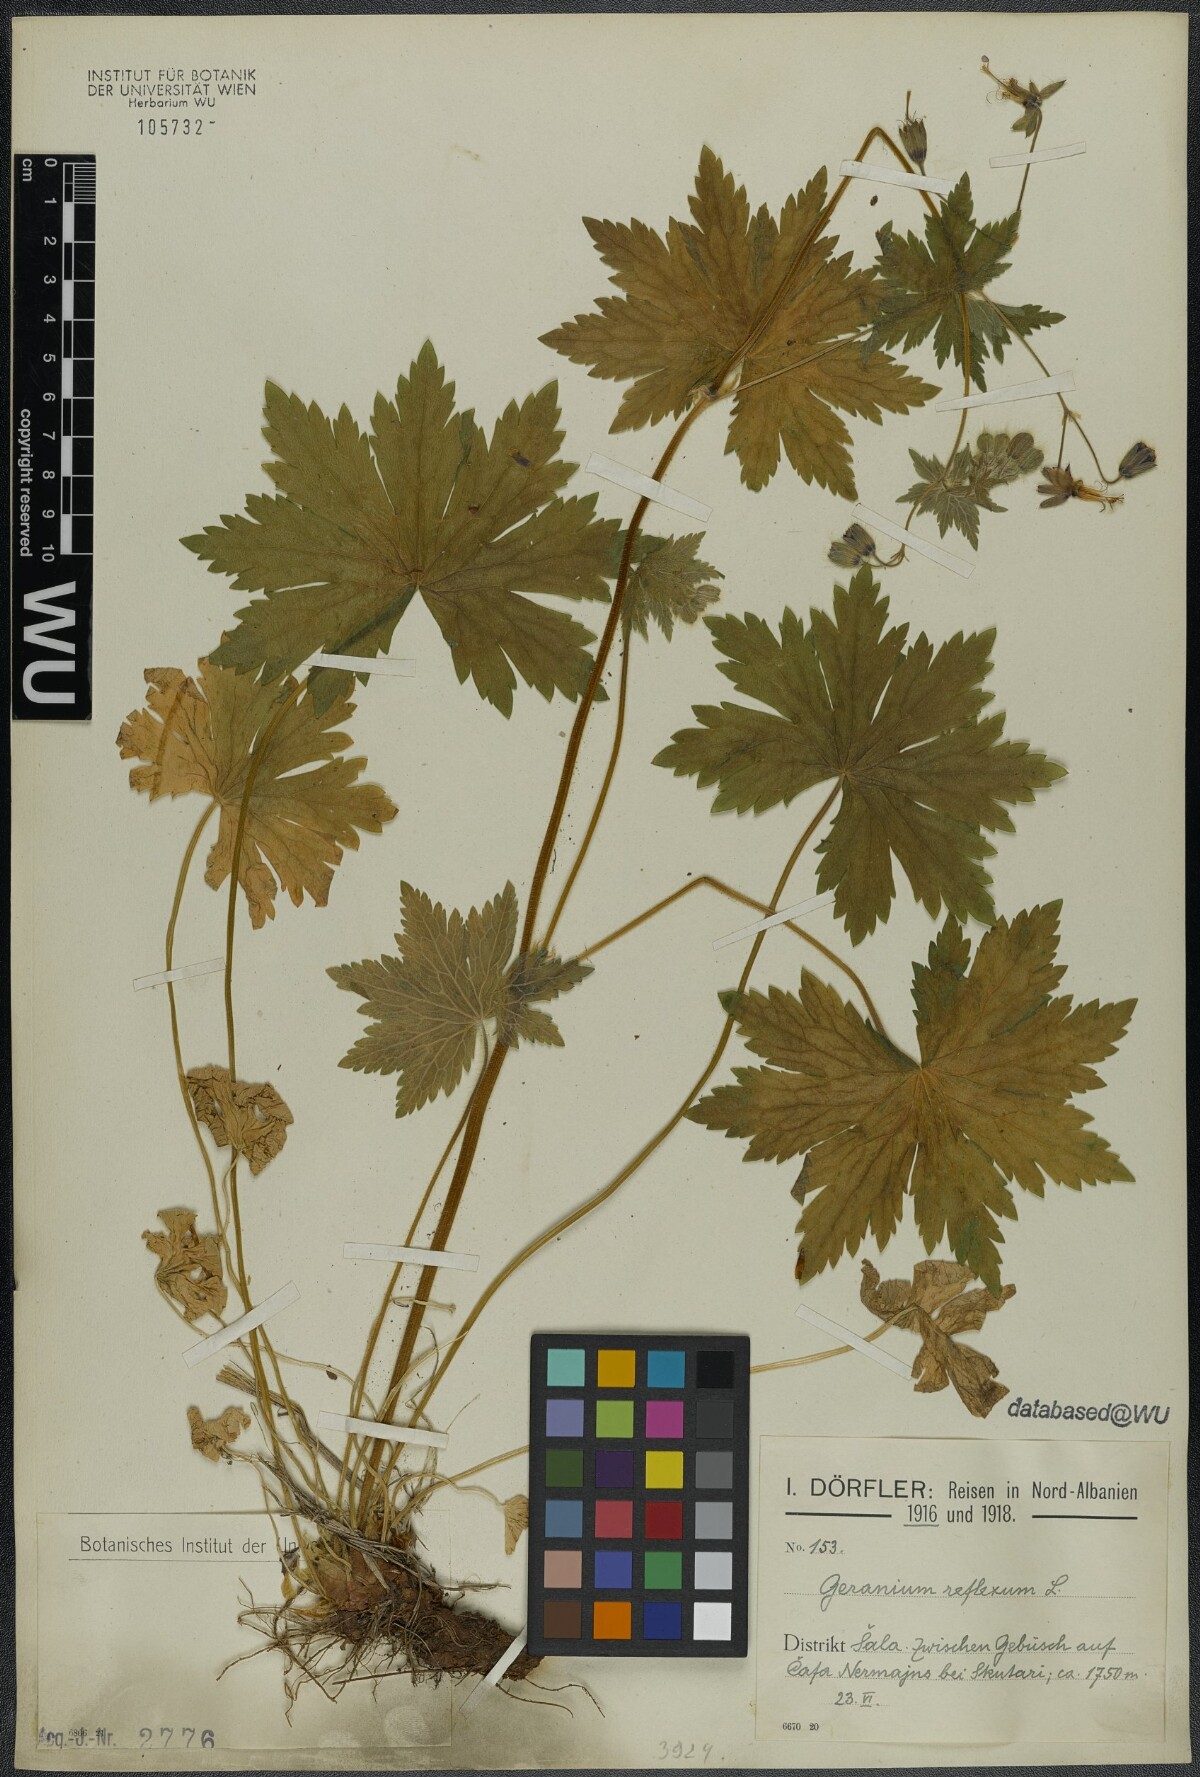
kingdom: Plantae
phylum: Tracheophyta
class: Magnoliopsida
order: Geraniales
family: Geraniaceae
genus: Geranium
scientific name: Geranium reflexum
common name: Reflexed crane's-bill
